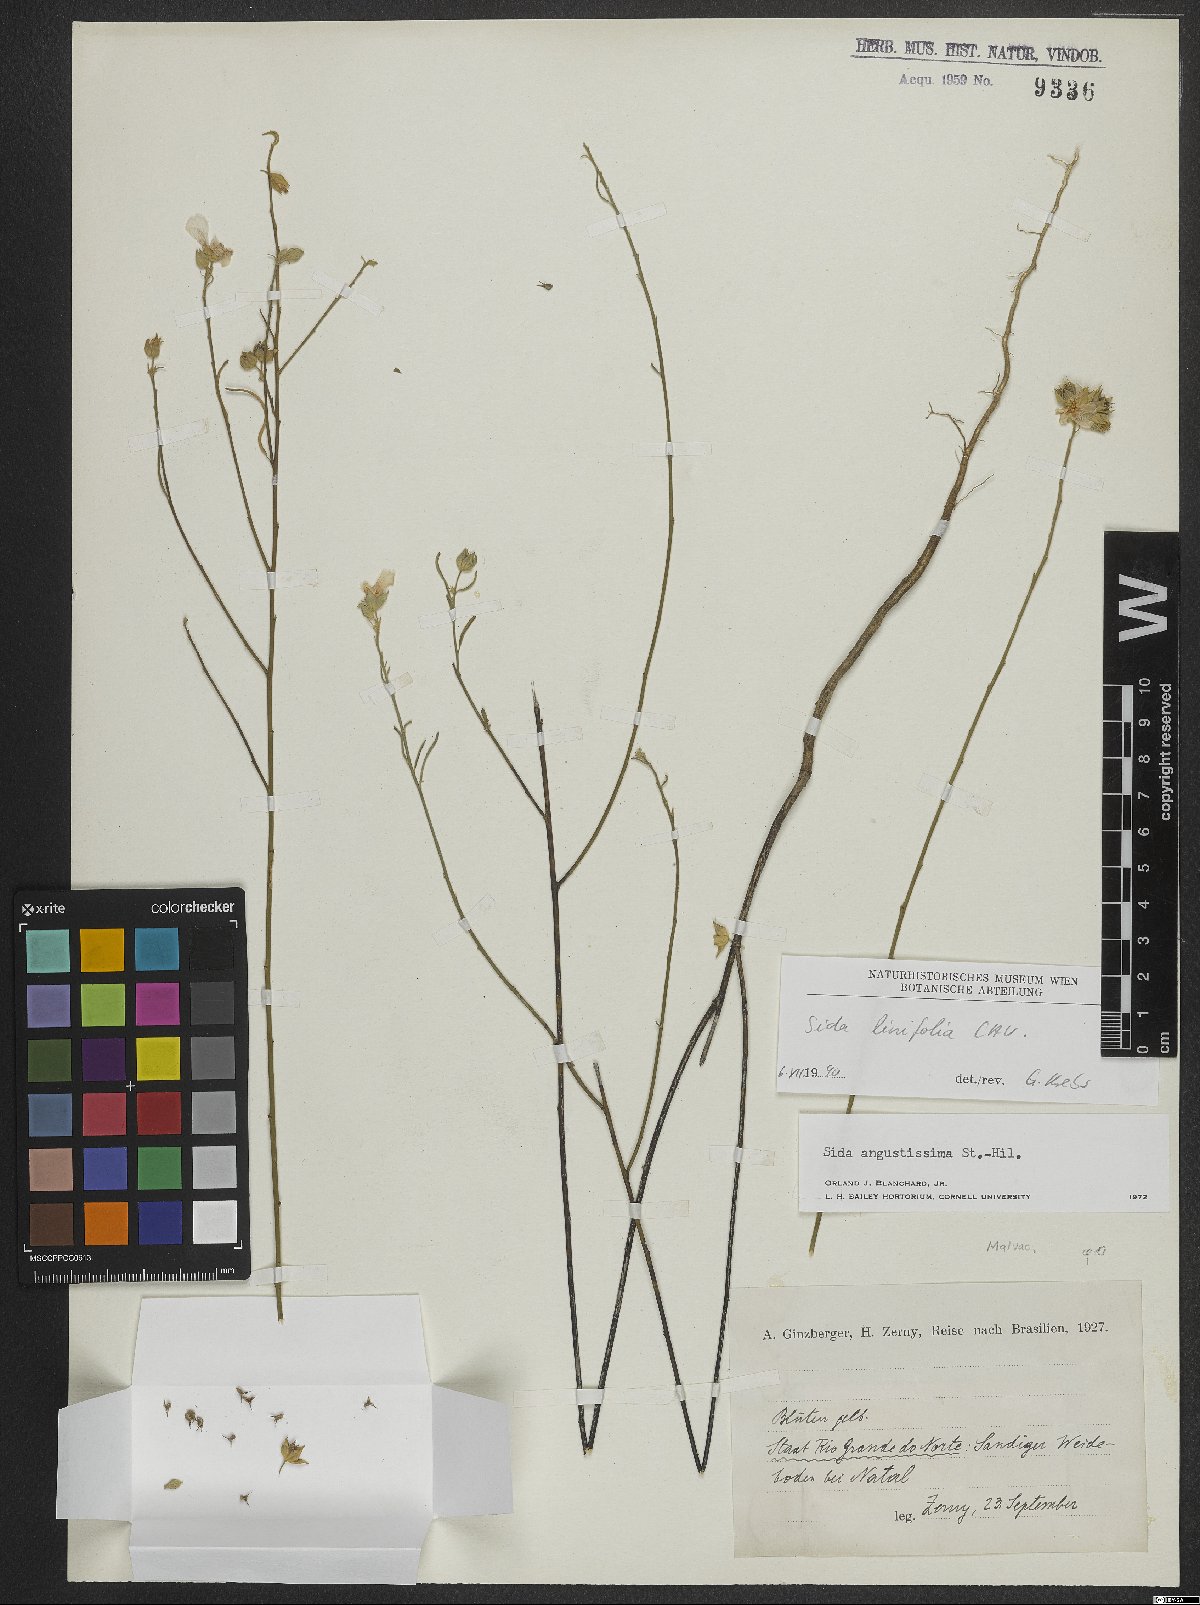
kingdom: Plantae
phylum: Tracheophyta
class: Magnoliopsida
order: Malvales
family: Malvaceae
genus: Sida
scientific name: Sida linifolia
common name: Flaxleaf fanpetals
